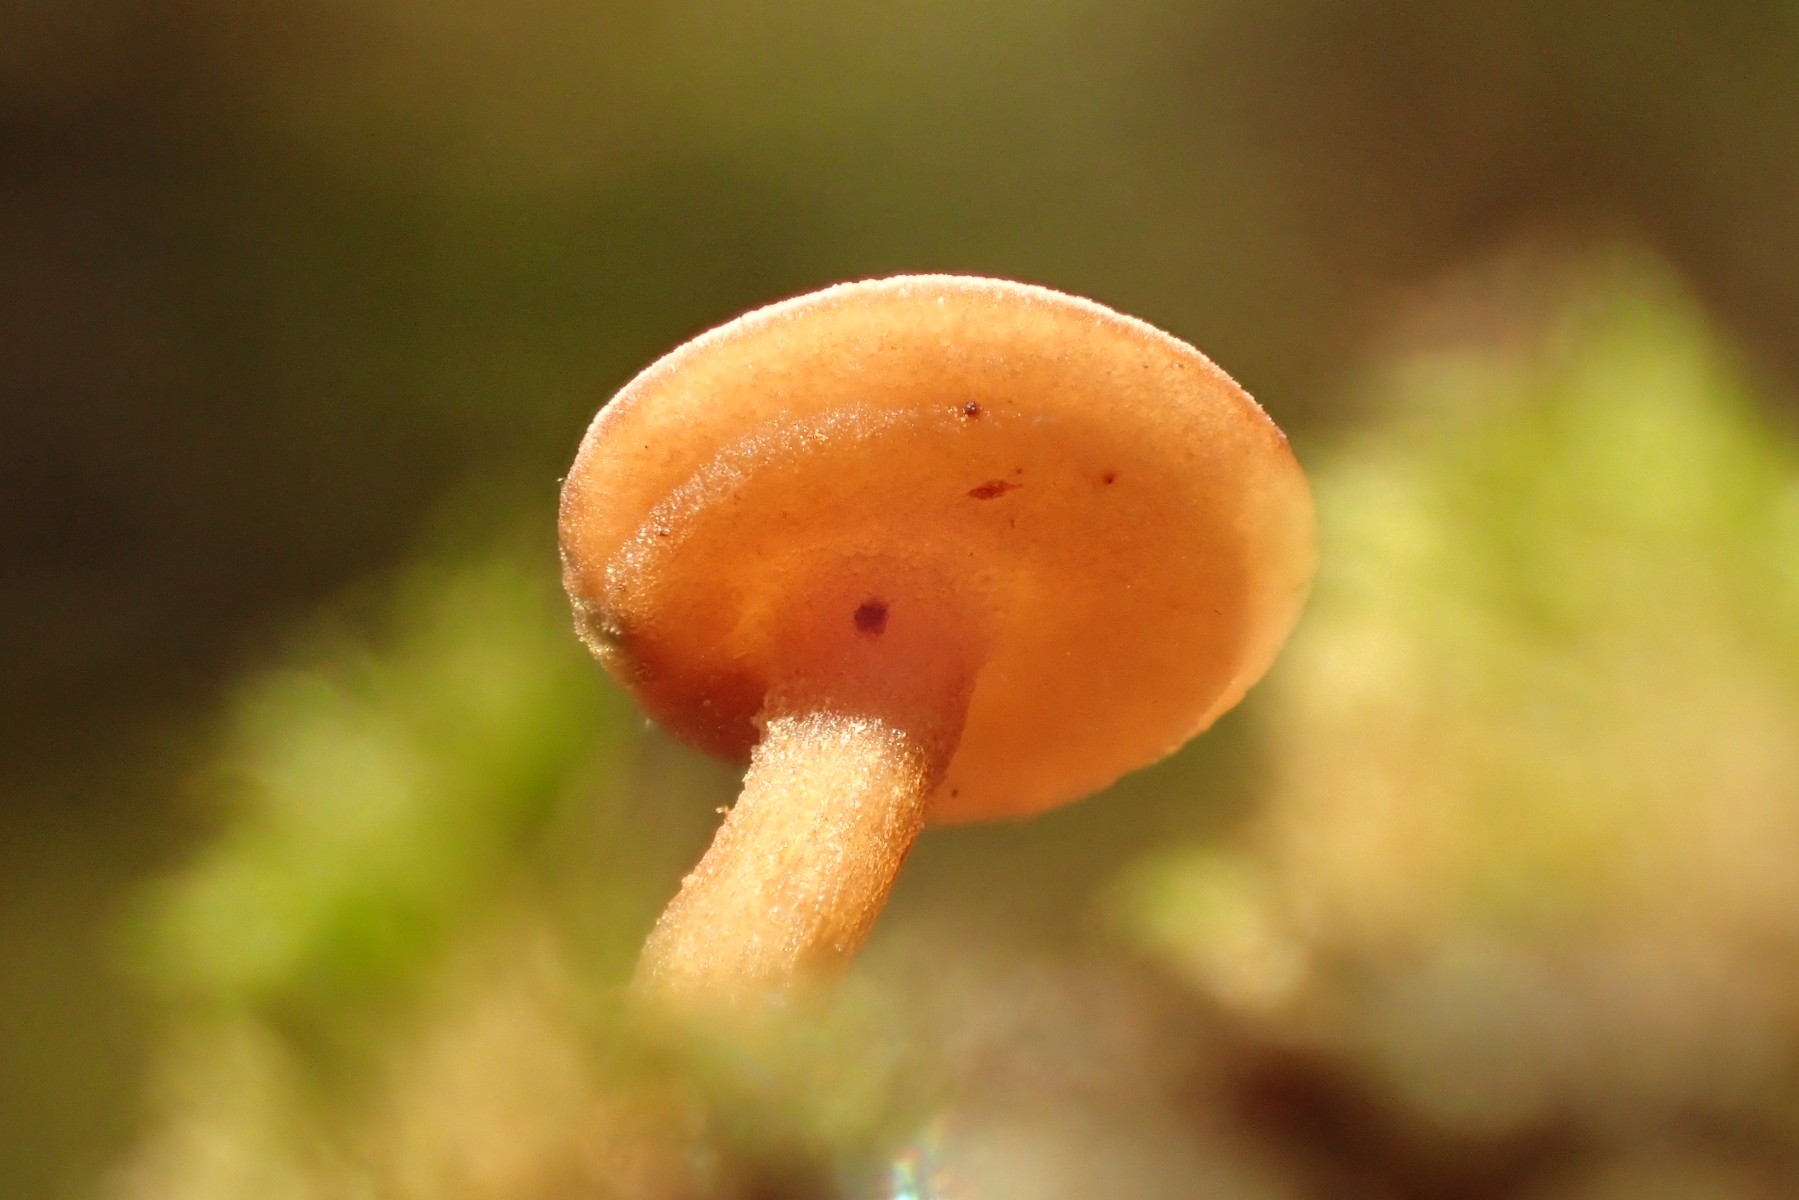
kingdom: Fungi
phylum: Ascomycota
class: Leotiomycetes
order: Helotiales
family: Sclerotiniaceae
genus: Sclerotinia
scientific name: Sclerotinia trifoliorum
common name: ærte-knoldskive
